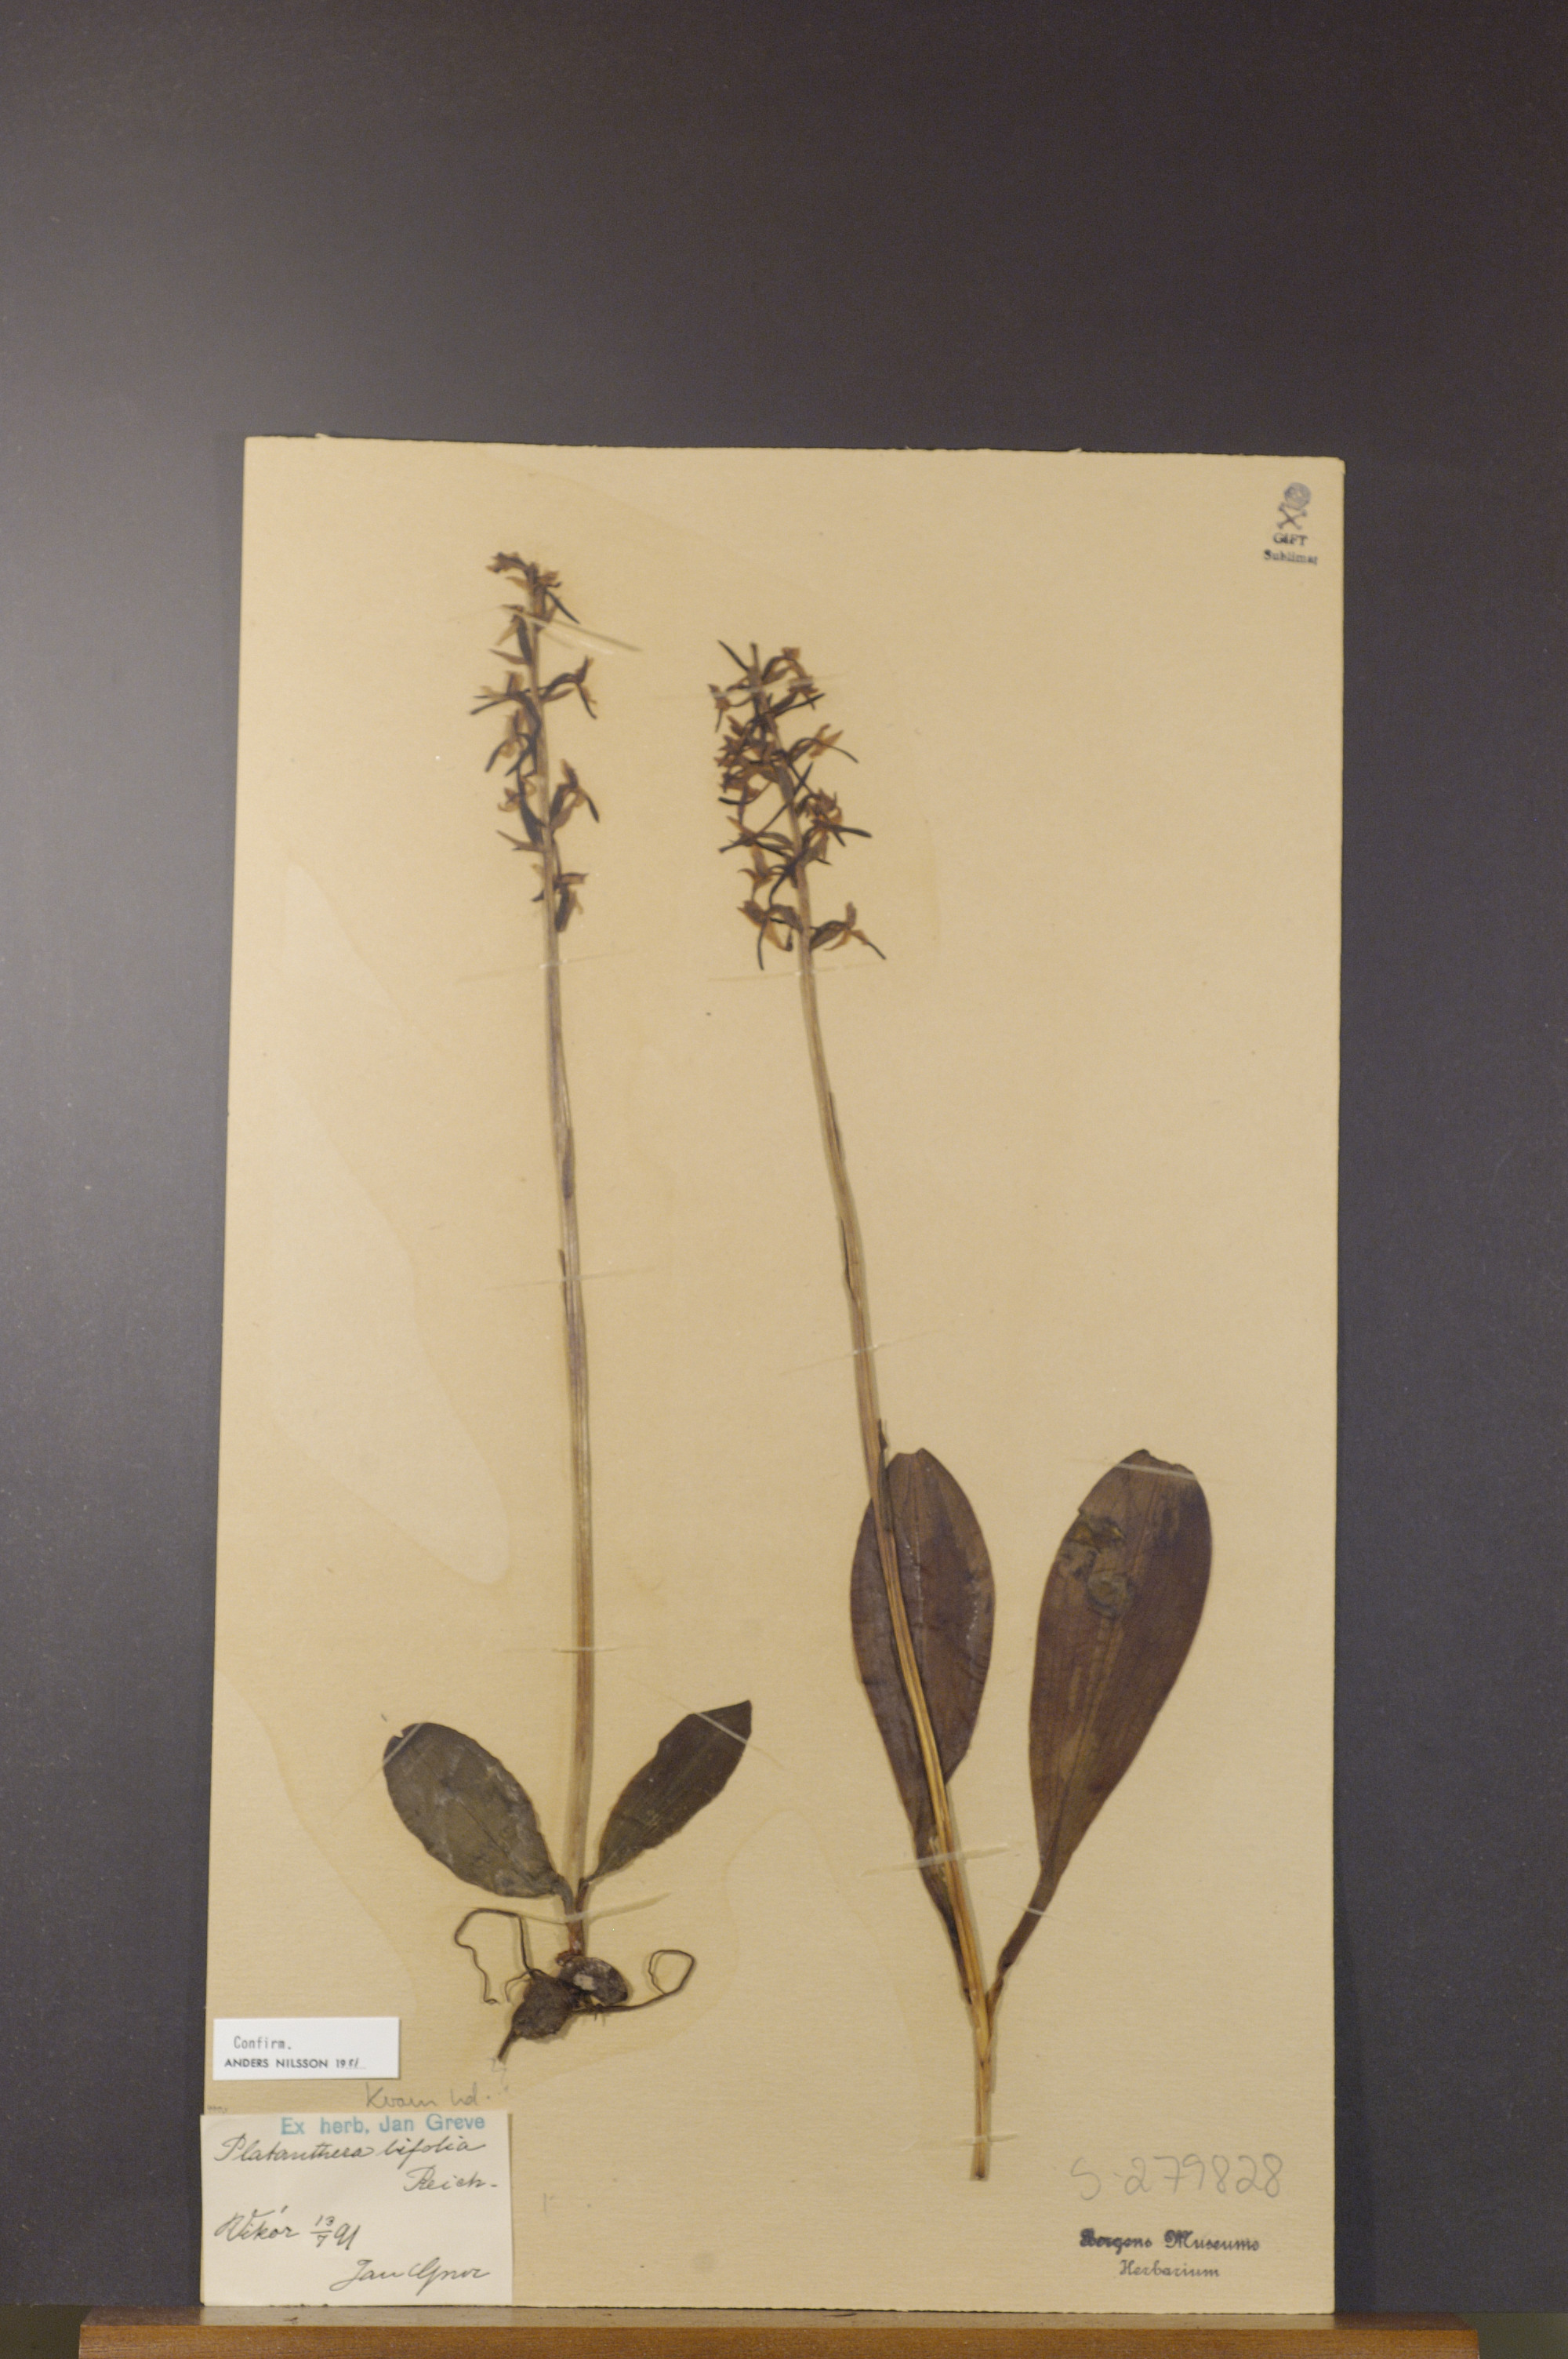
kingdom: Plantae
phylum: Tracheophyta
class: Liliopsida
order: Asparagales
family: Orchidaceae
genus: Platanthera
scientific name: Platanthera bifolia
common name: Lesser butterfly-orchid
